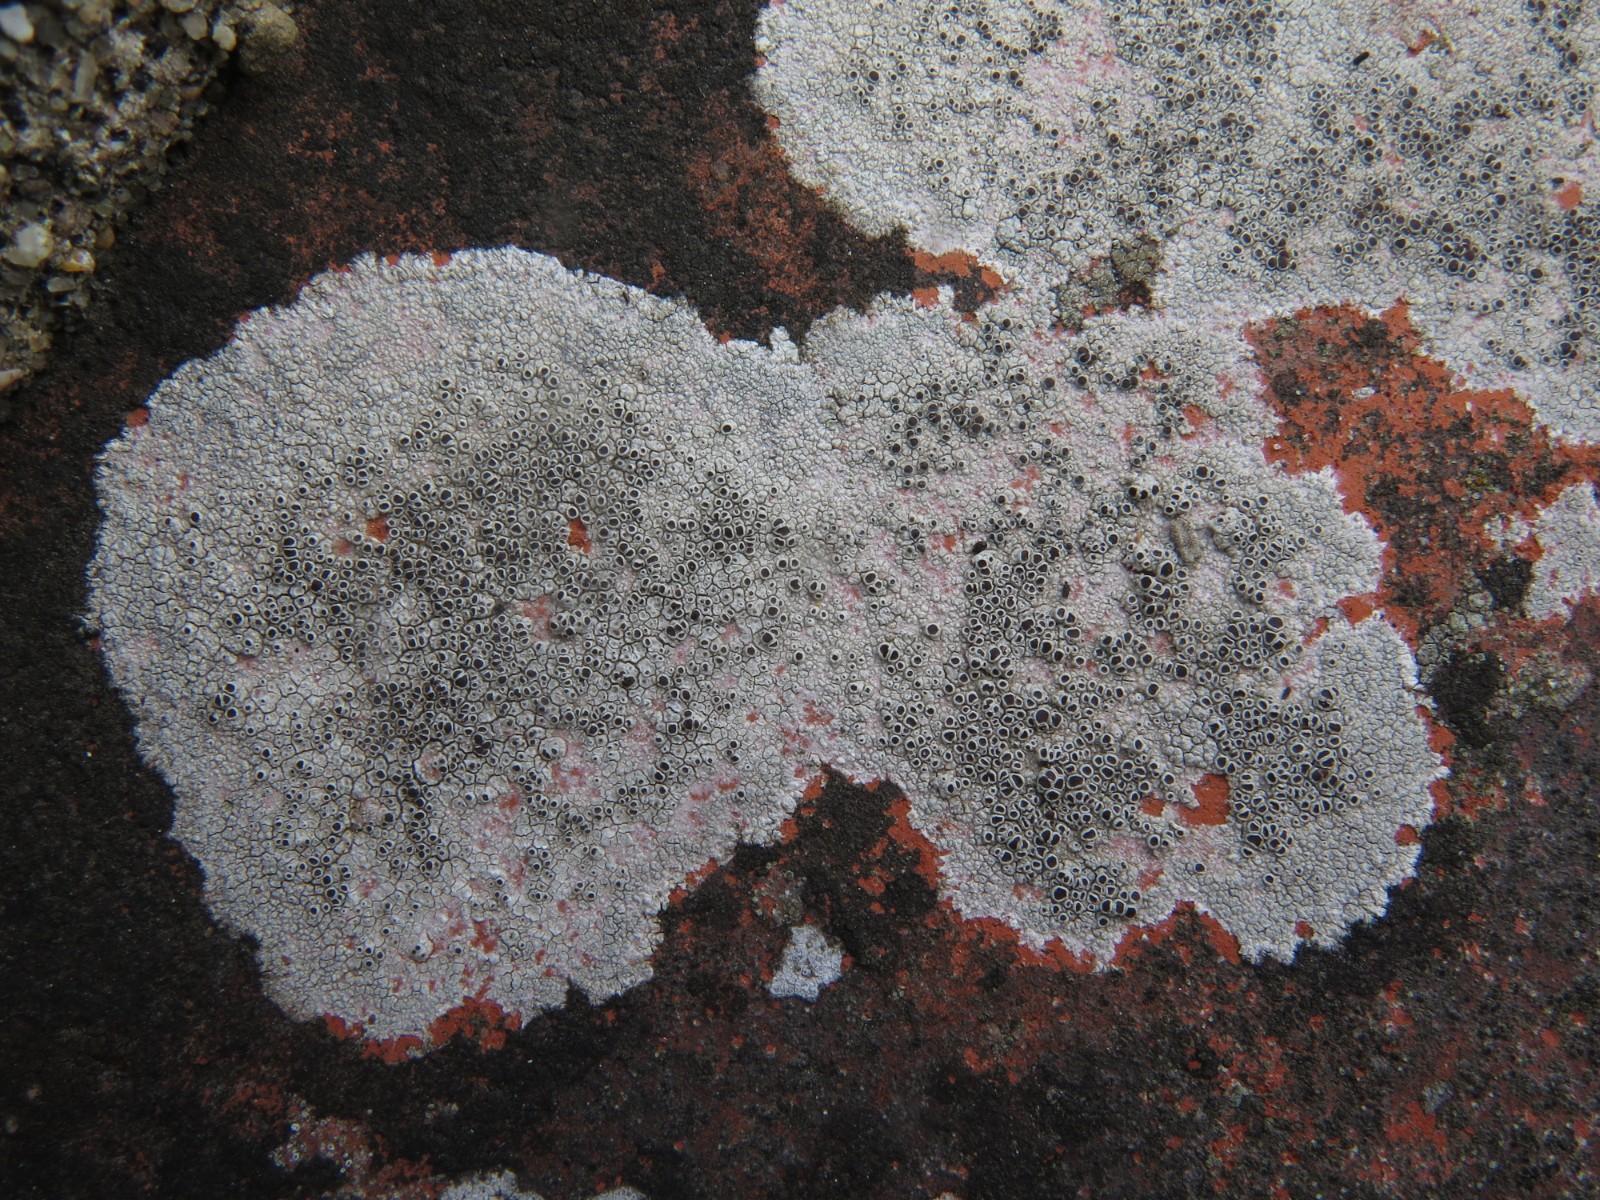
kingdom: Fungi
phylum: Ascomycota
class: Lecanoromycetes
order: Lecanorales
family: Lecanoraceae
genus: Lecanora
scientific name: Lecanora campestris
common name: mur-kantskivelav
